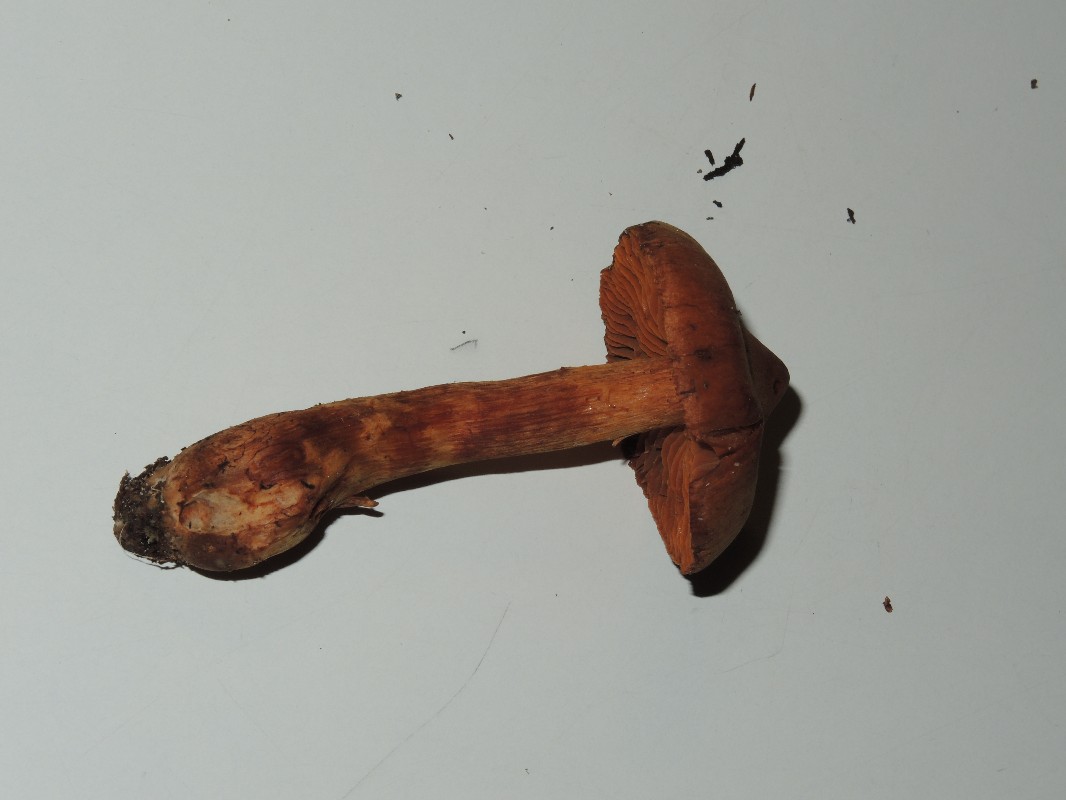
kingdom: Fungi
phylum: Basidiomycota
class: Agaricomycetes
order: Agaricales
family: Cortinariaceae
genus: Cortinarius
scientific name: Cortinarius rubellus
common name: puklet gift-slørhat
